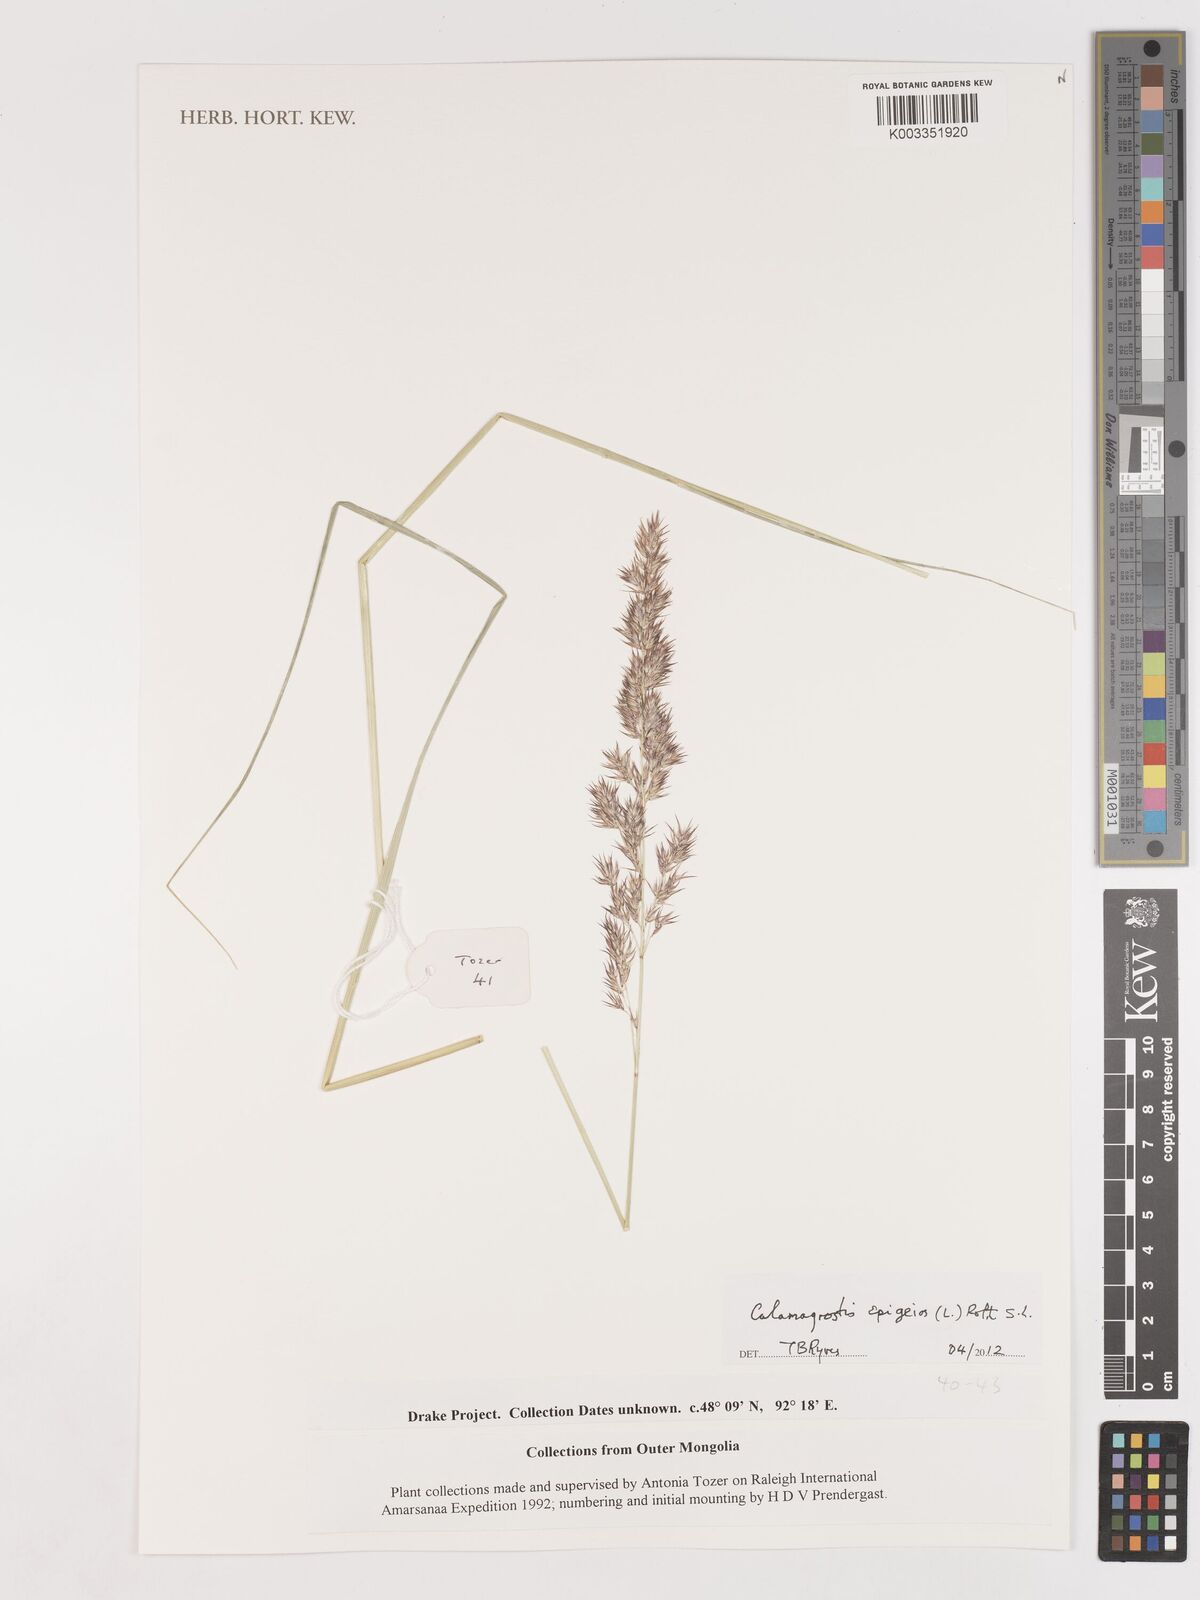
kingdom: Plantae
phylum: Tracheophyta
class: Liliopsida
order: Poales
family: Poaceae
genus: Calamagrostis
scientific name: Calamagrostis epigejos
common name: Wood small-reed
